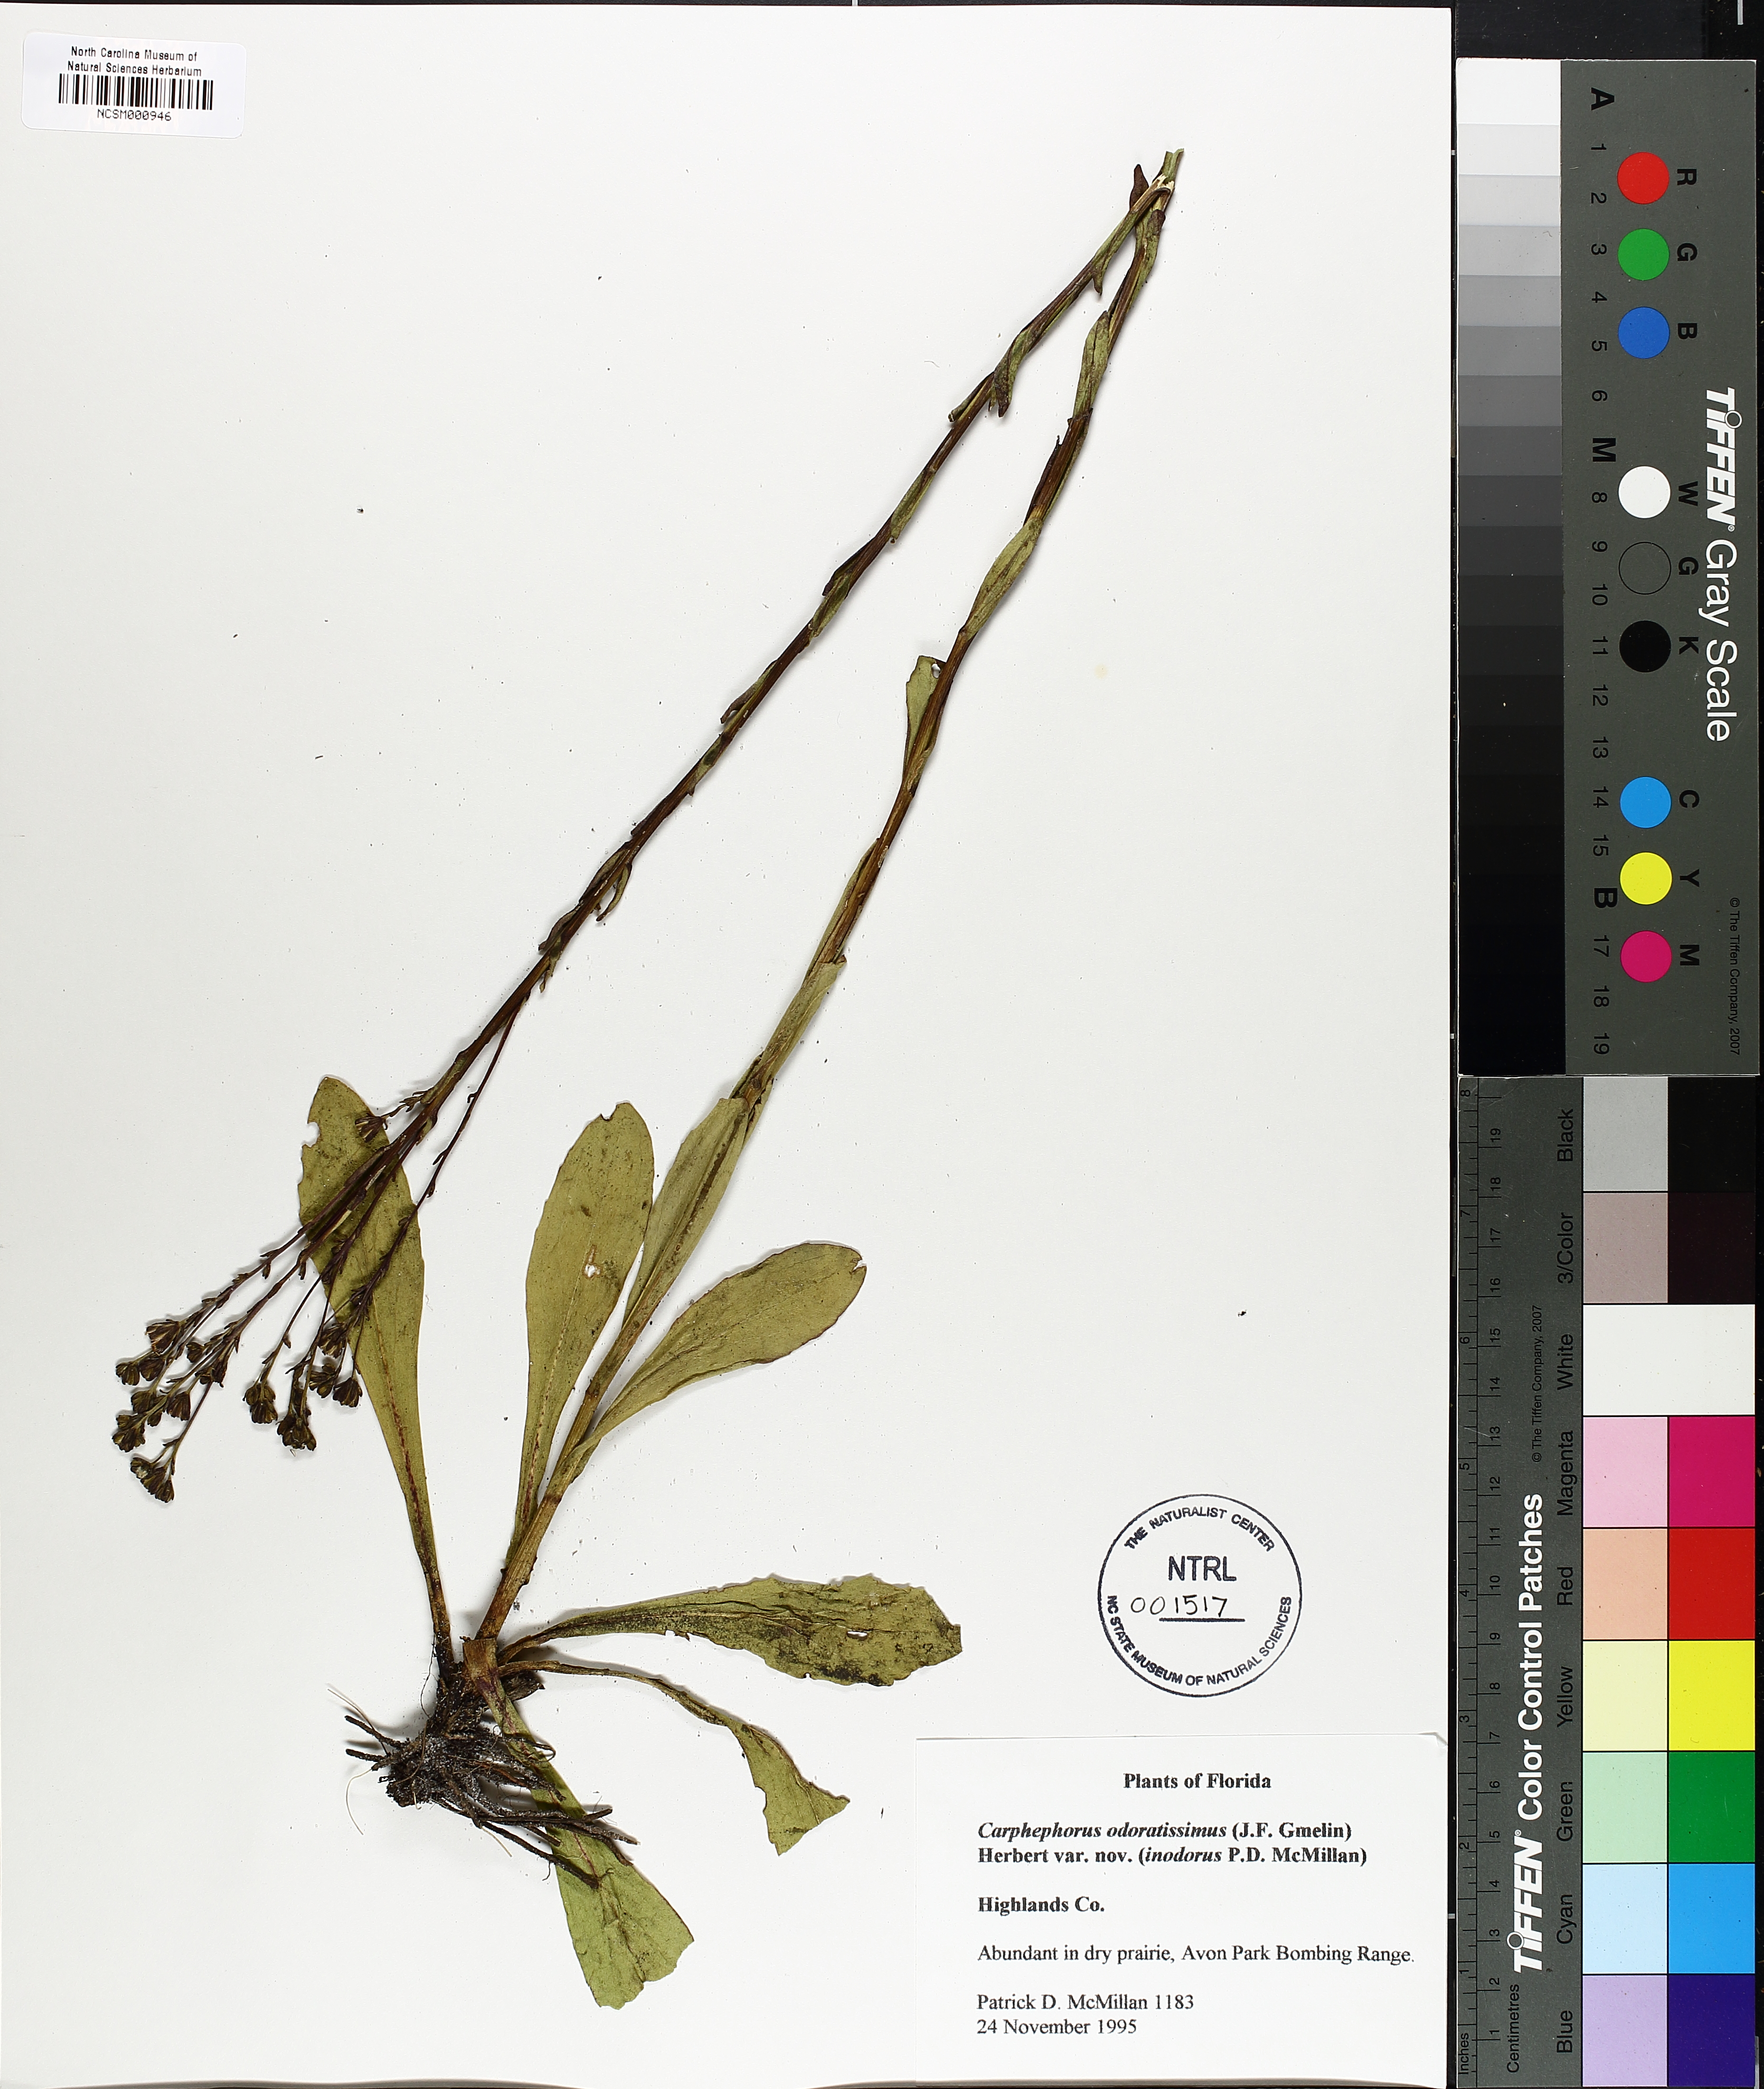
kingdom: Plantae
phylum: Tracheophyta
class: Magnoliopsida
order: Asterales
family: Asteraceae
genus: Carphephorus
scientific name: Carphephorus odoratissimus
